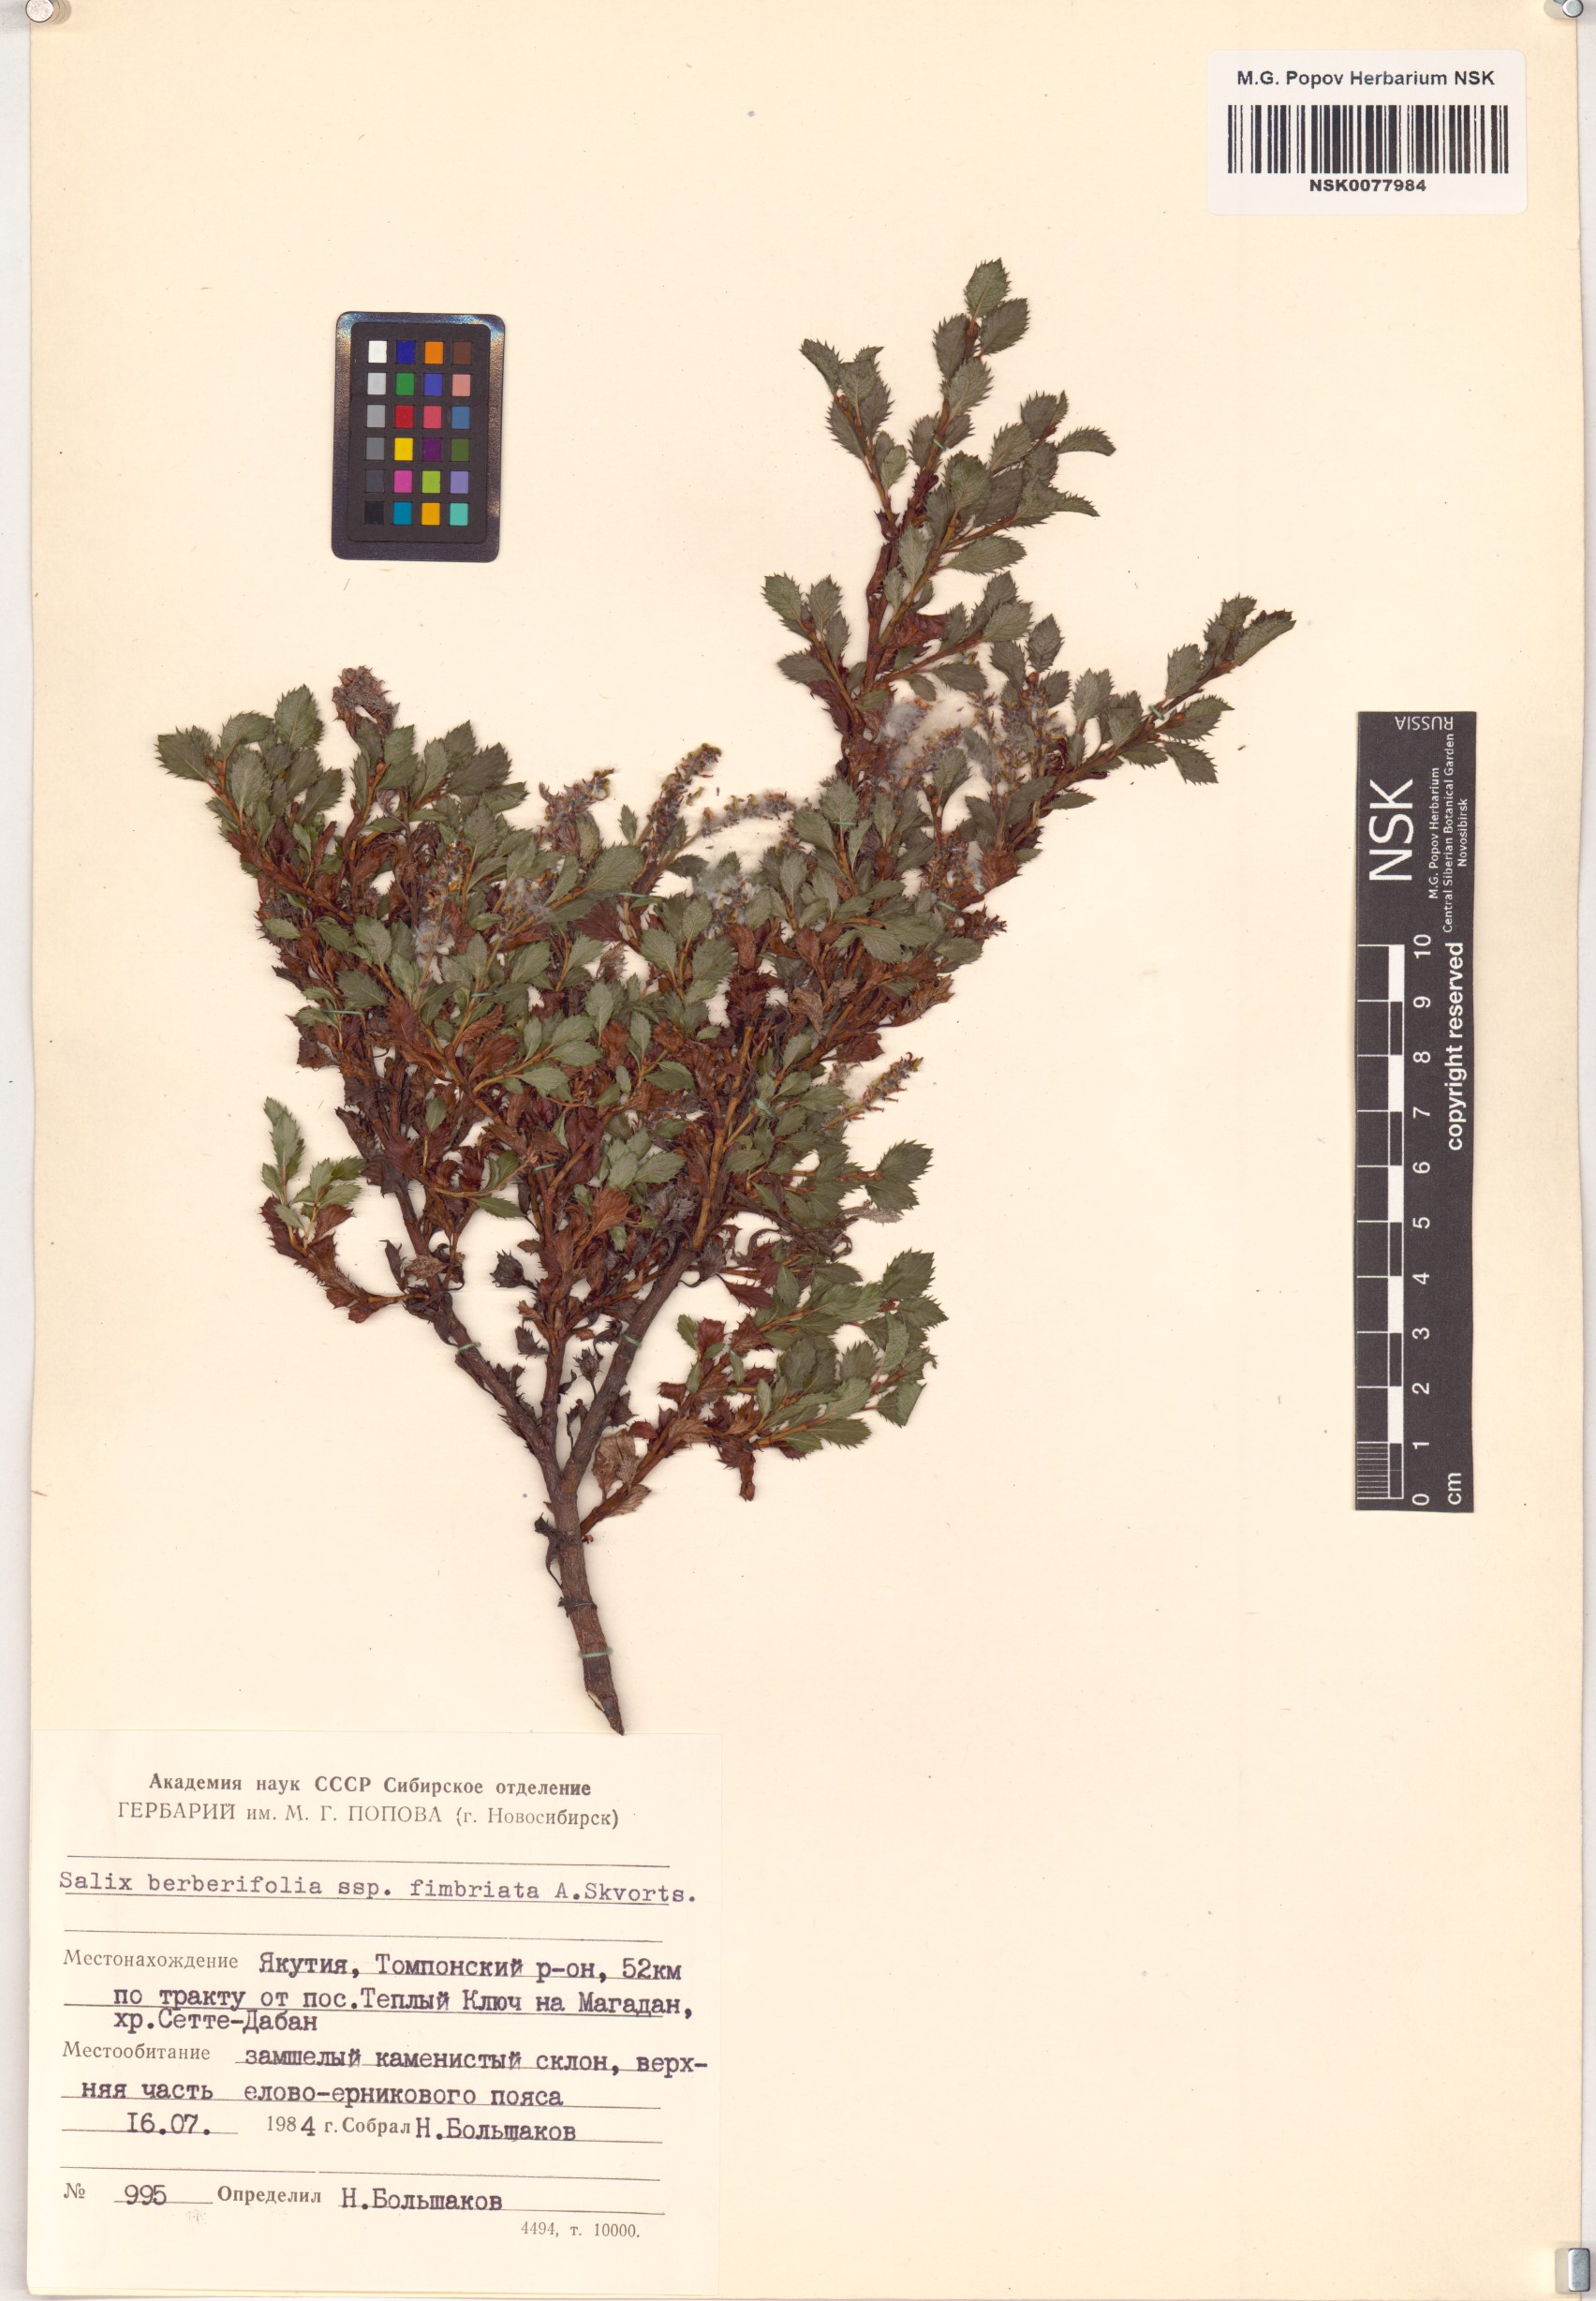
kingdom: Plantae
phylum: Tracheophyta
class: Magnoliopsida
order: Malpighiales
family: Salicaceae
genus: Salix
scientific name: Salix berberifolia
